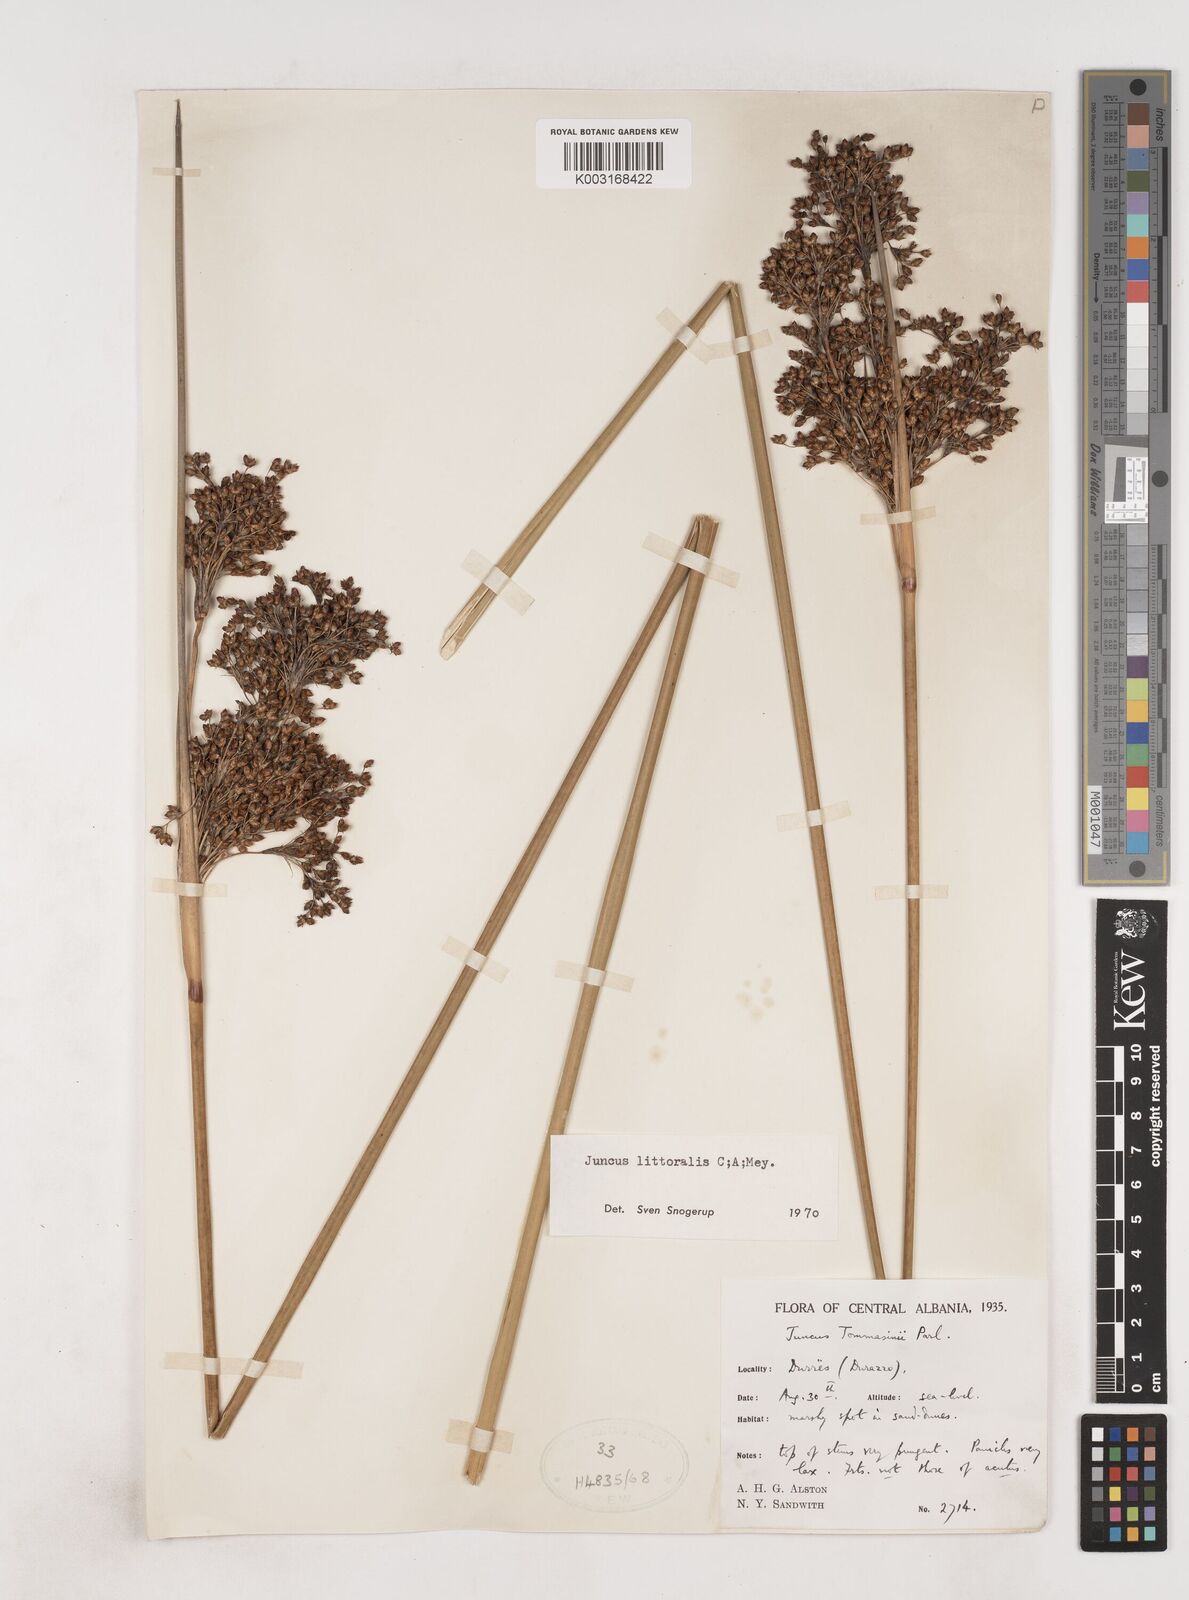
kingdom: Plantae
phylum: Tracheophyta
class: Liliopsida
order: Poales
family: Juncaceae
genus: Juncus
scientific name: Juncus
